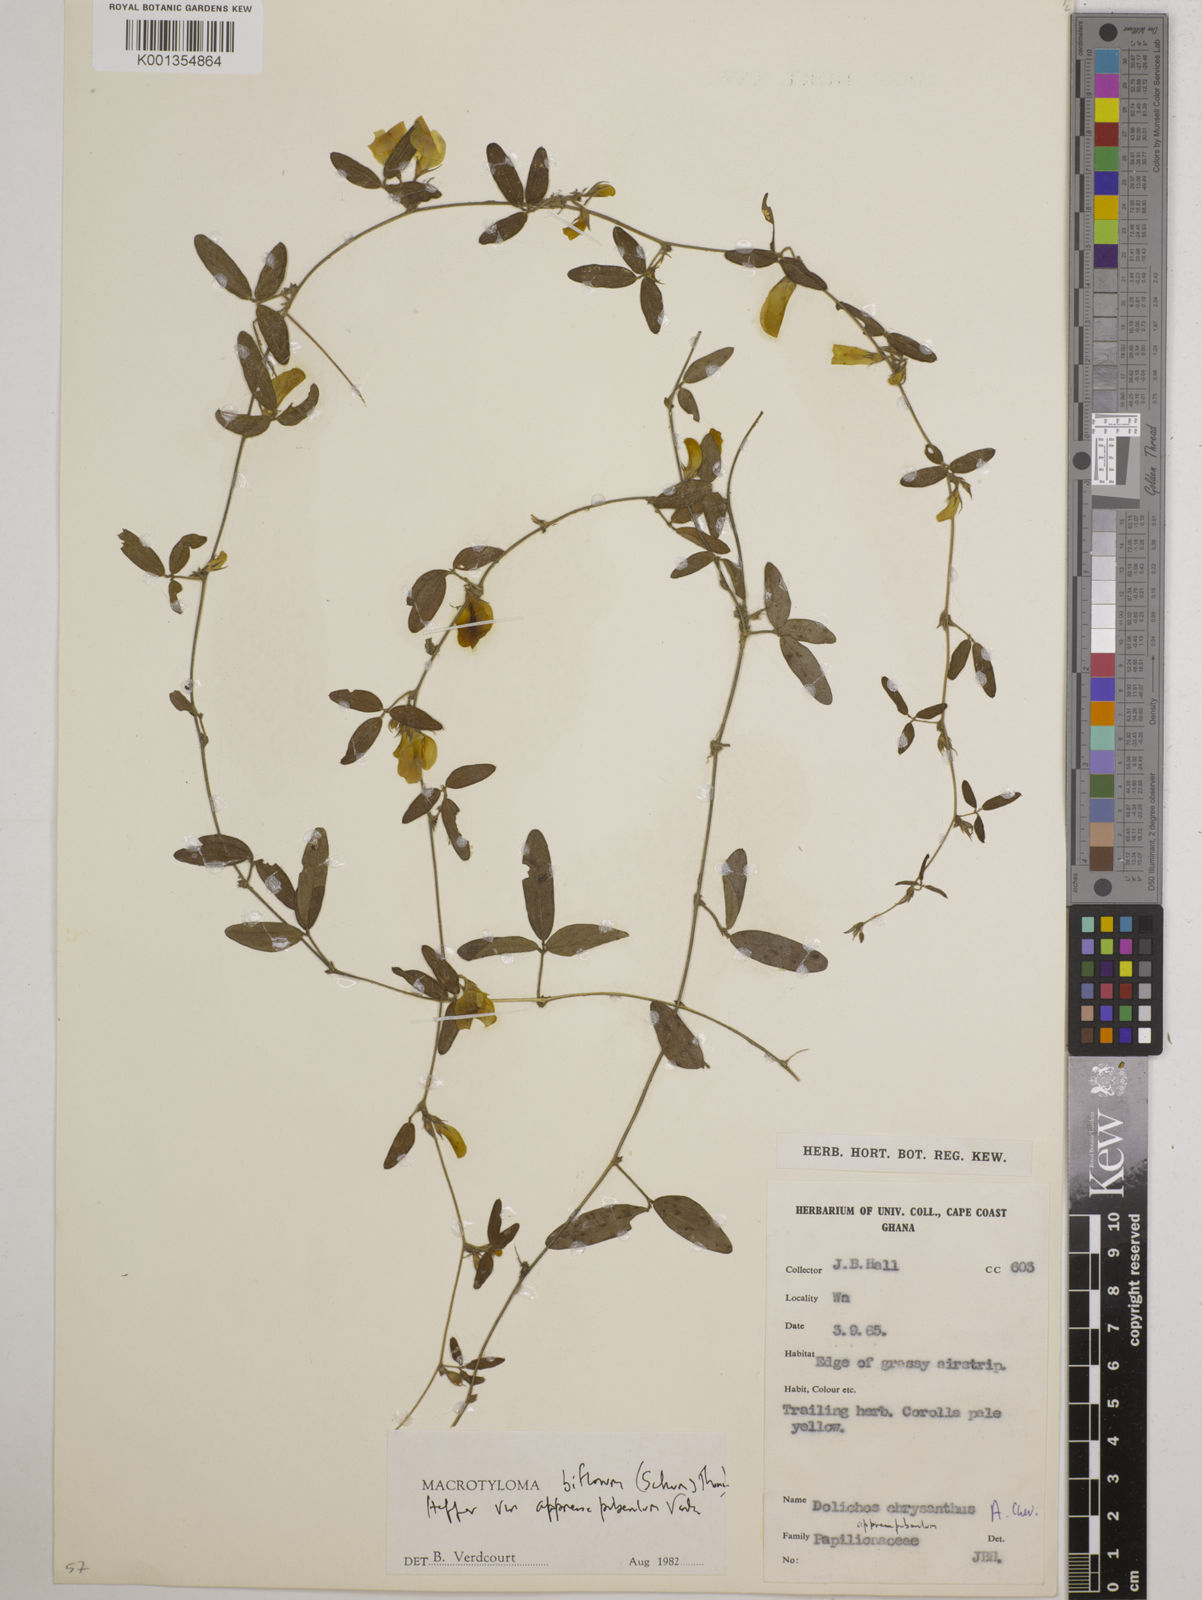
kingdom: Plantae
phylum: Tracheophyta
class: Magnoliopsida
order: Fabales
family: Fabaceae
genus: Macrotyloma
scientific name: Macrotyloma biflorum
